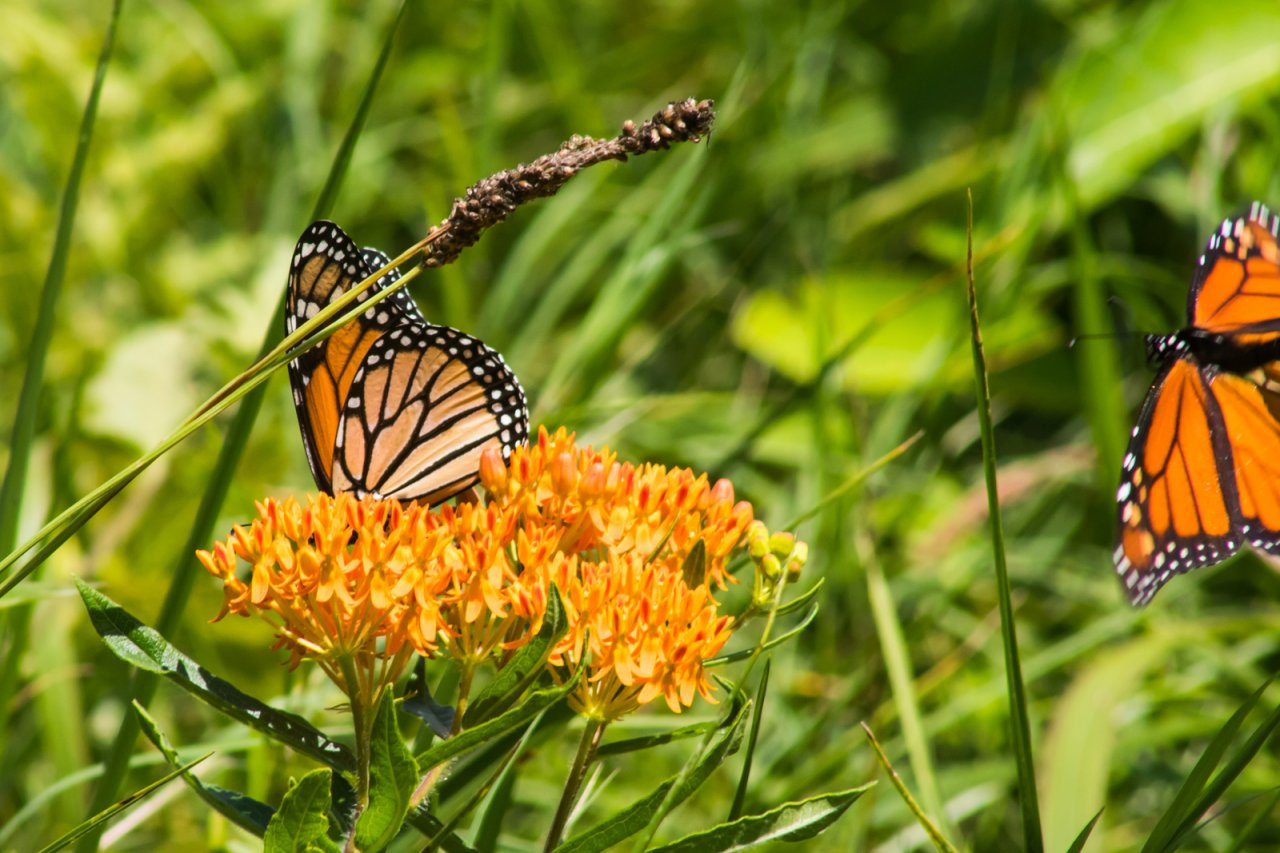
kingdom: Animalia
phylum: Arthropoda
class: Insecta
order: Lepidoptera
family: Nymphalidae
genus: Danaus
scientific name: Danaus plexippus
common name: Monarch
